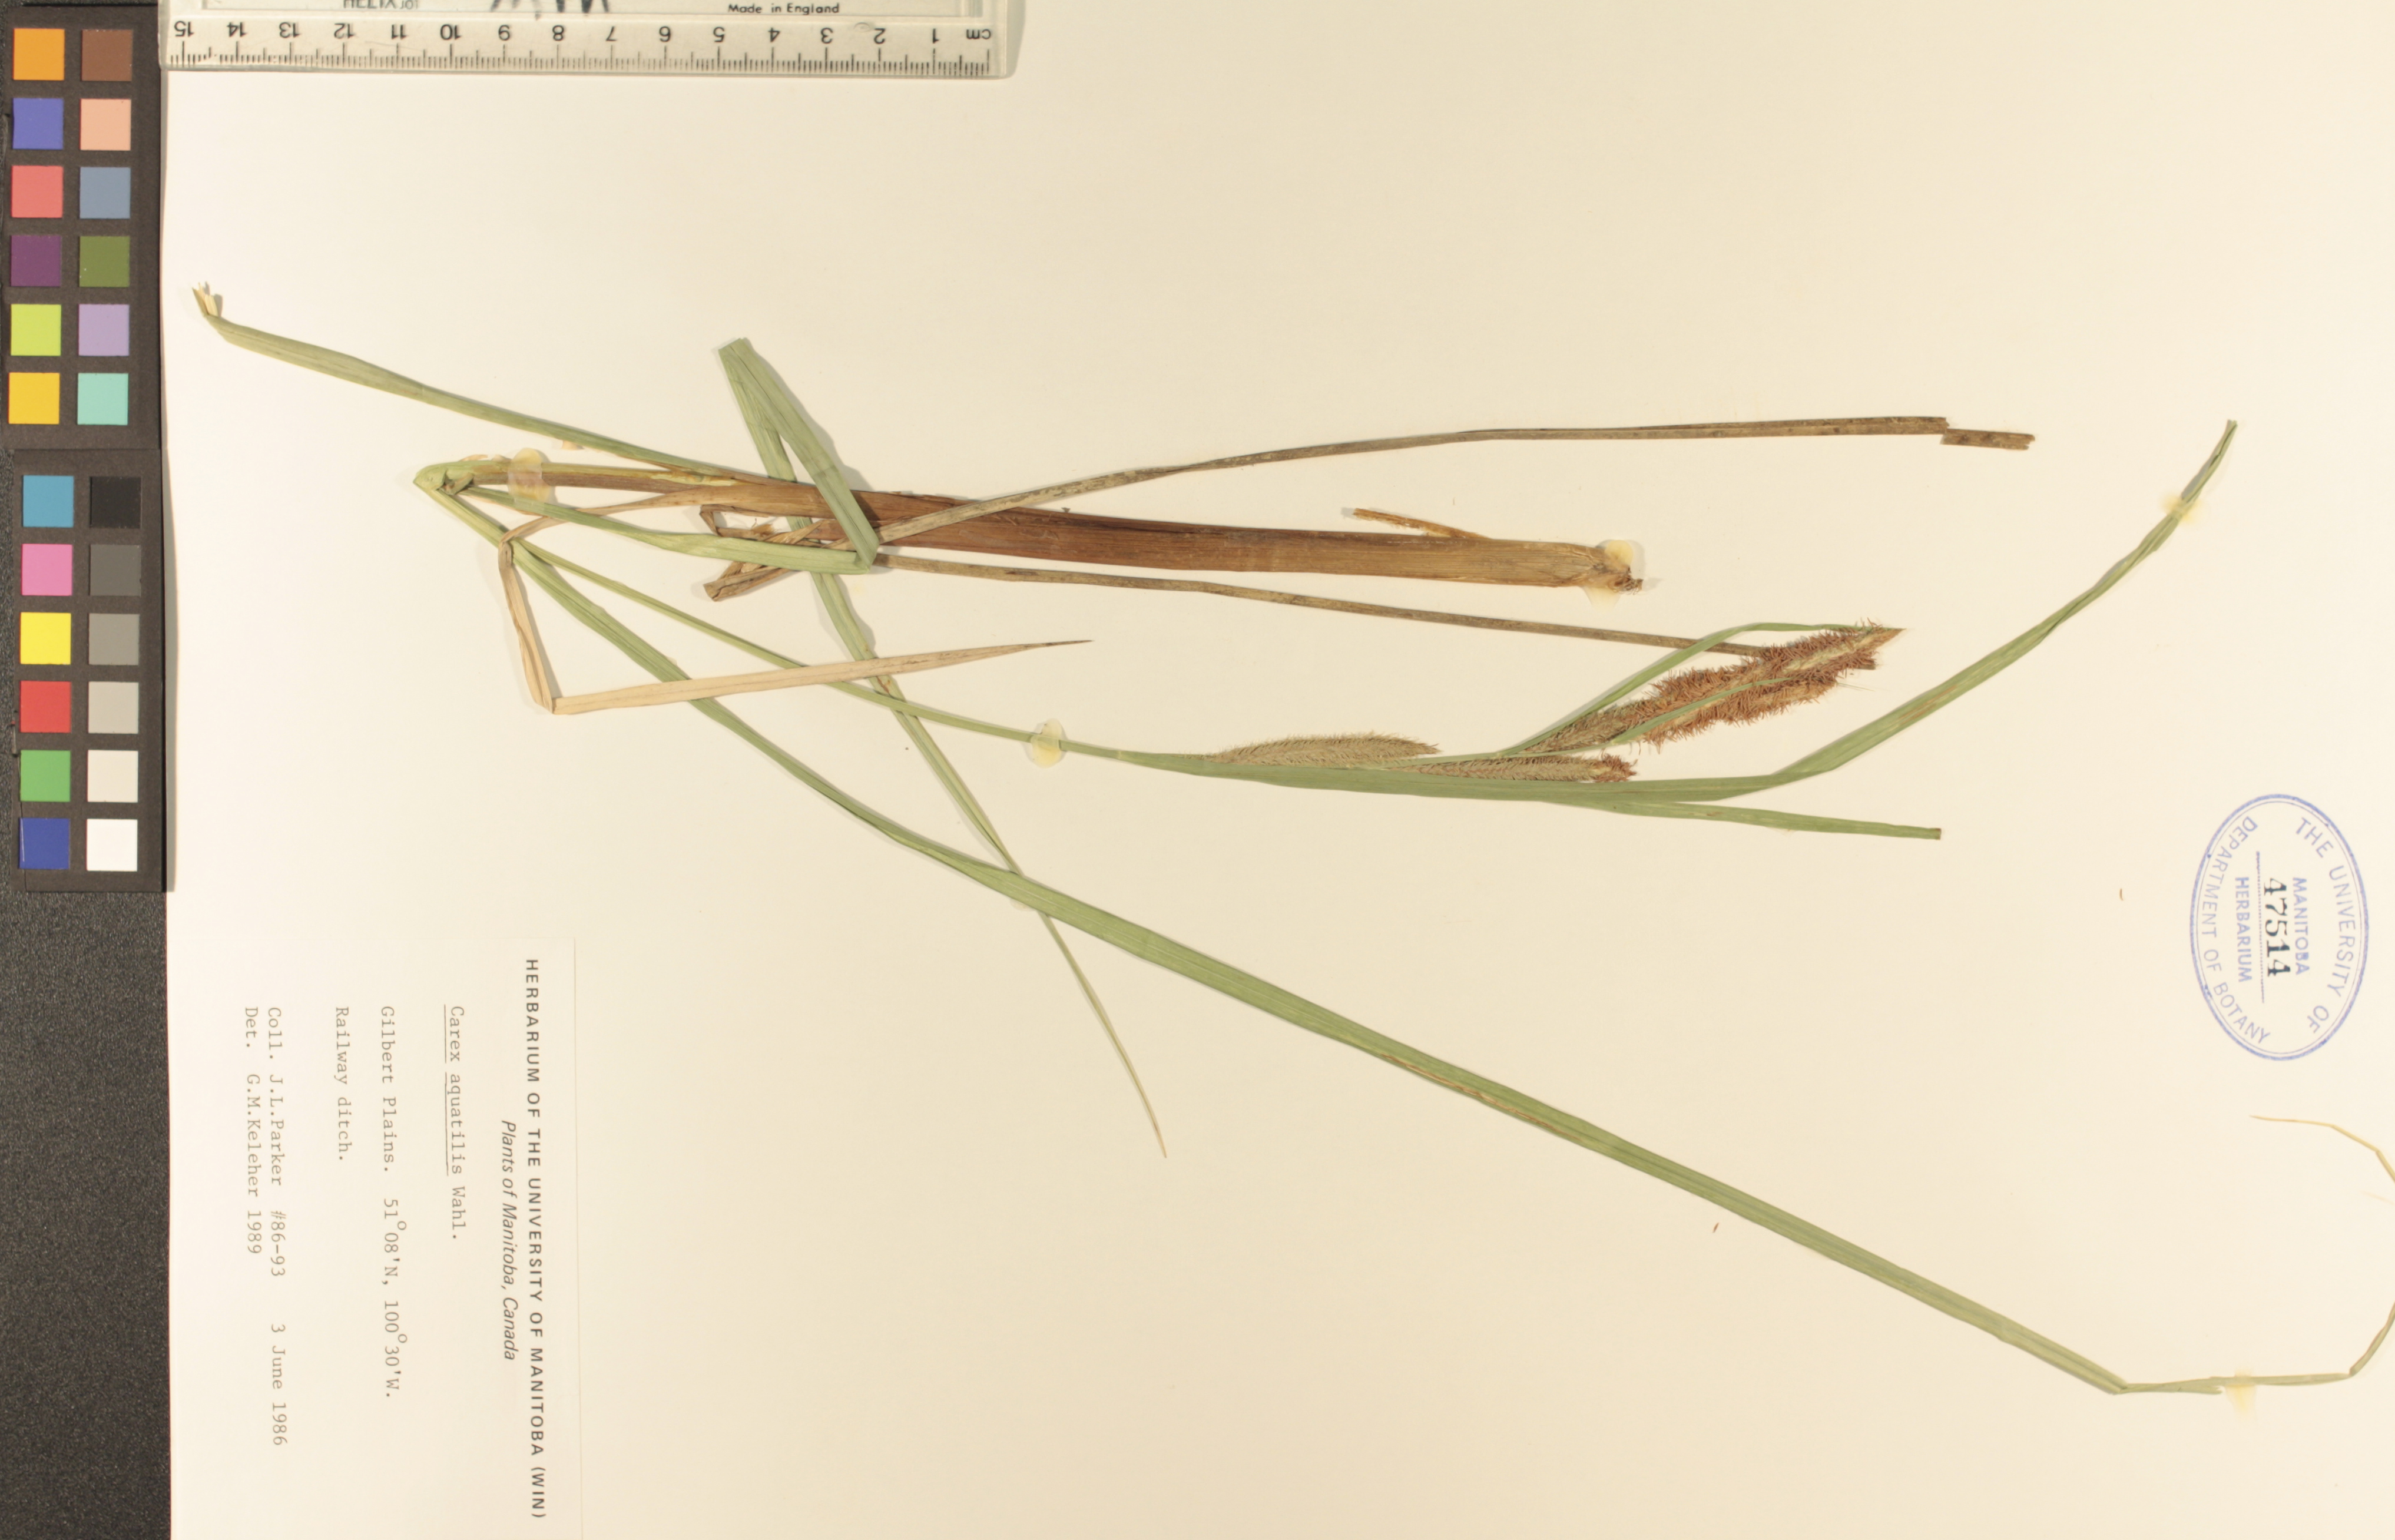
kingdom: Plantae
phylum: Tracheophyta
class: Liliopsida
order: Poales
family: Cyperaceae
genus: Carex
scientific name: Carex aquatilis
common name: Water sedge
